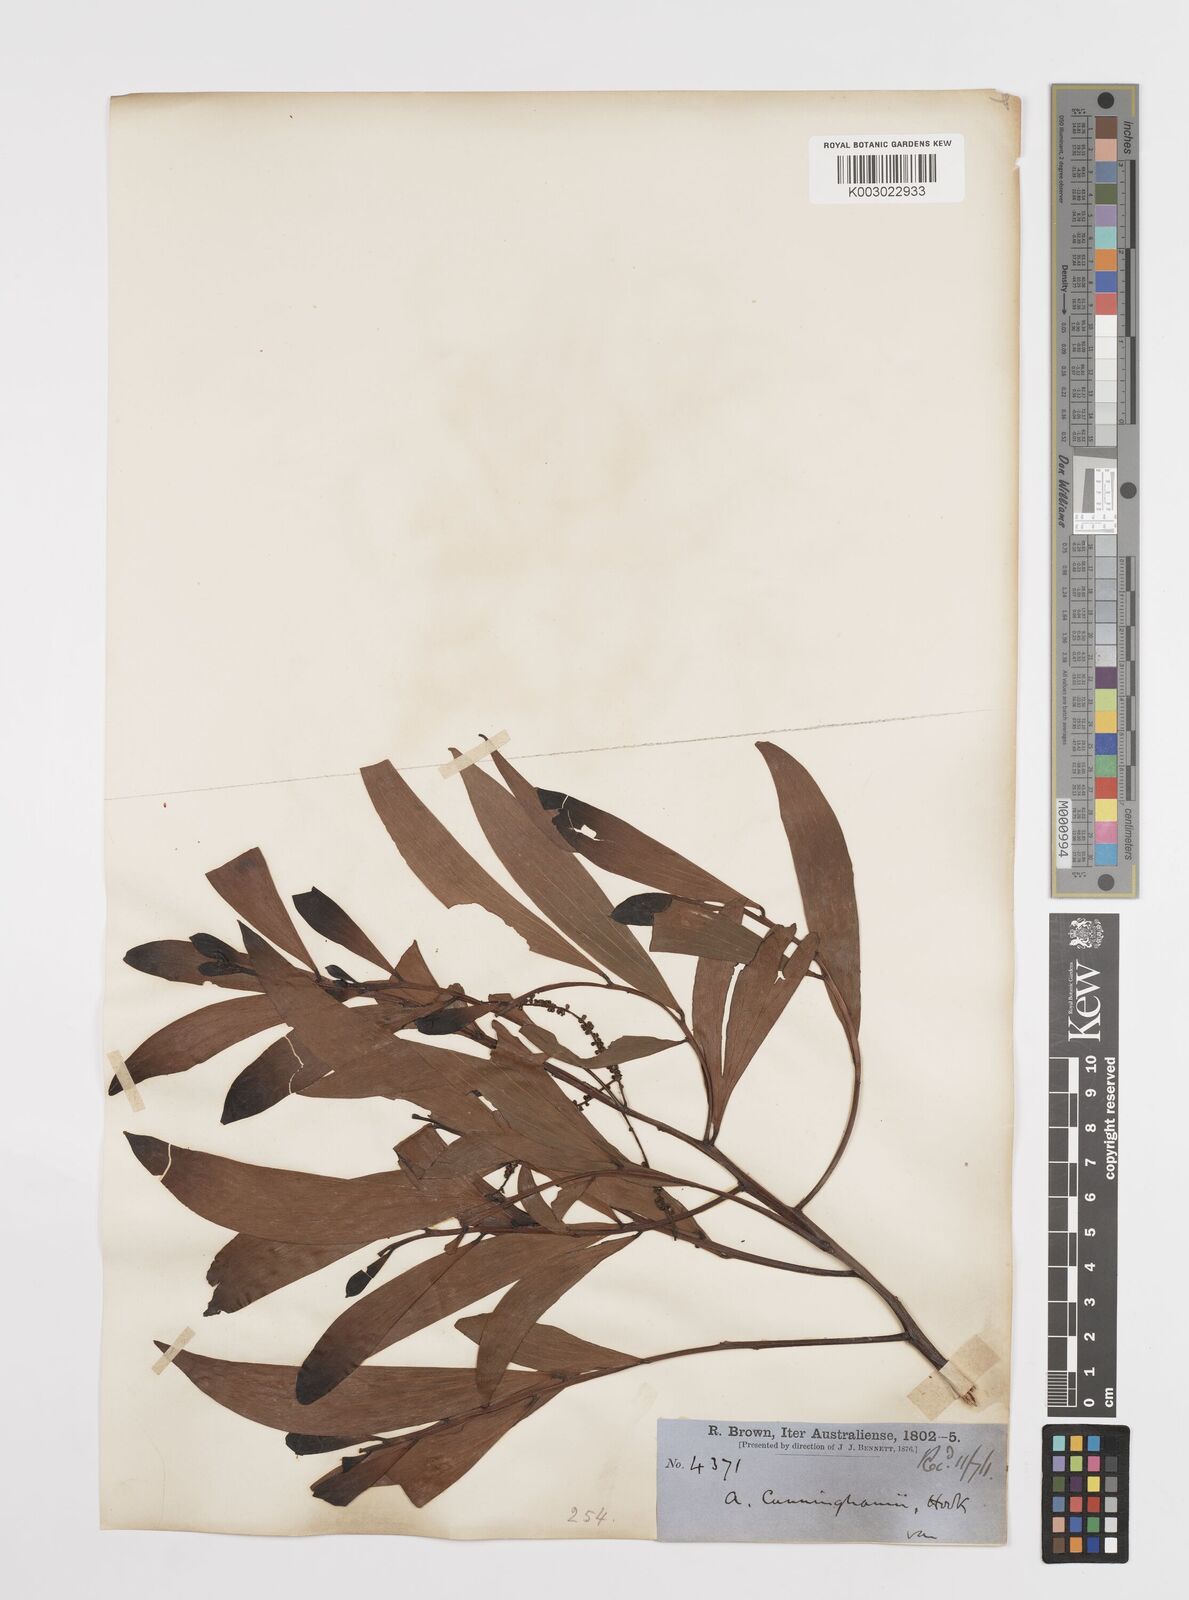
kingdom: Plantae
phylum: Tracheophyta
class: Magnoliopsida
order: Fabales
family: Fabaceae
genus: Acacia
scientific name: Acacia longispicata
